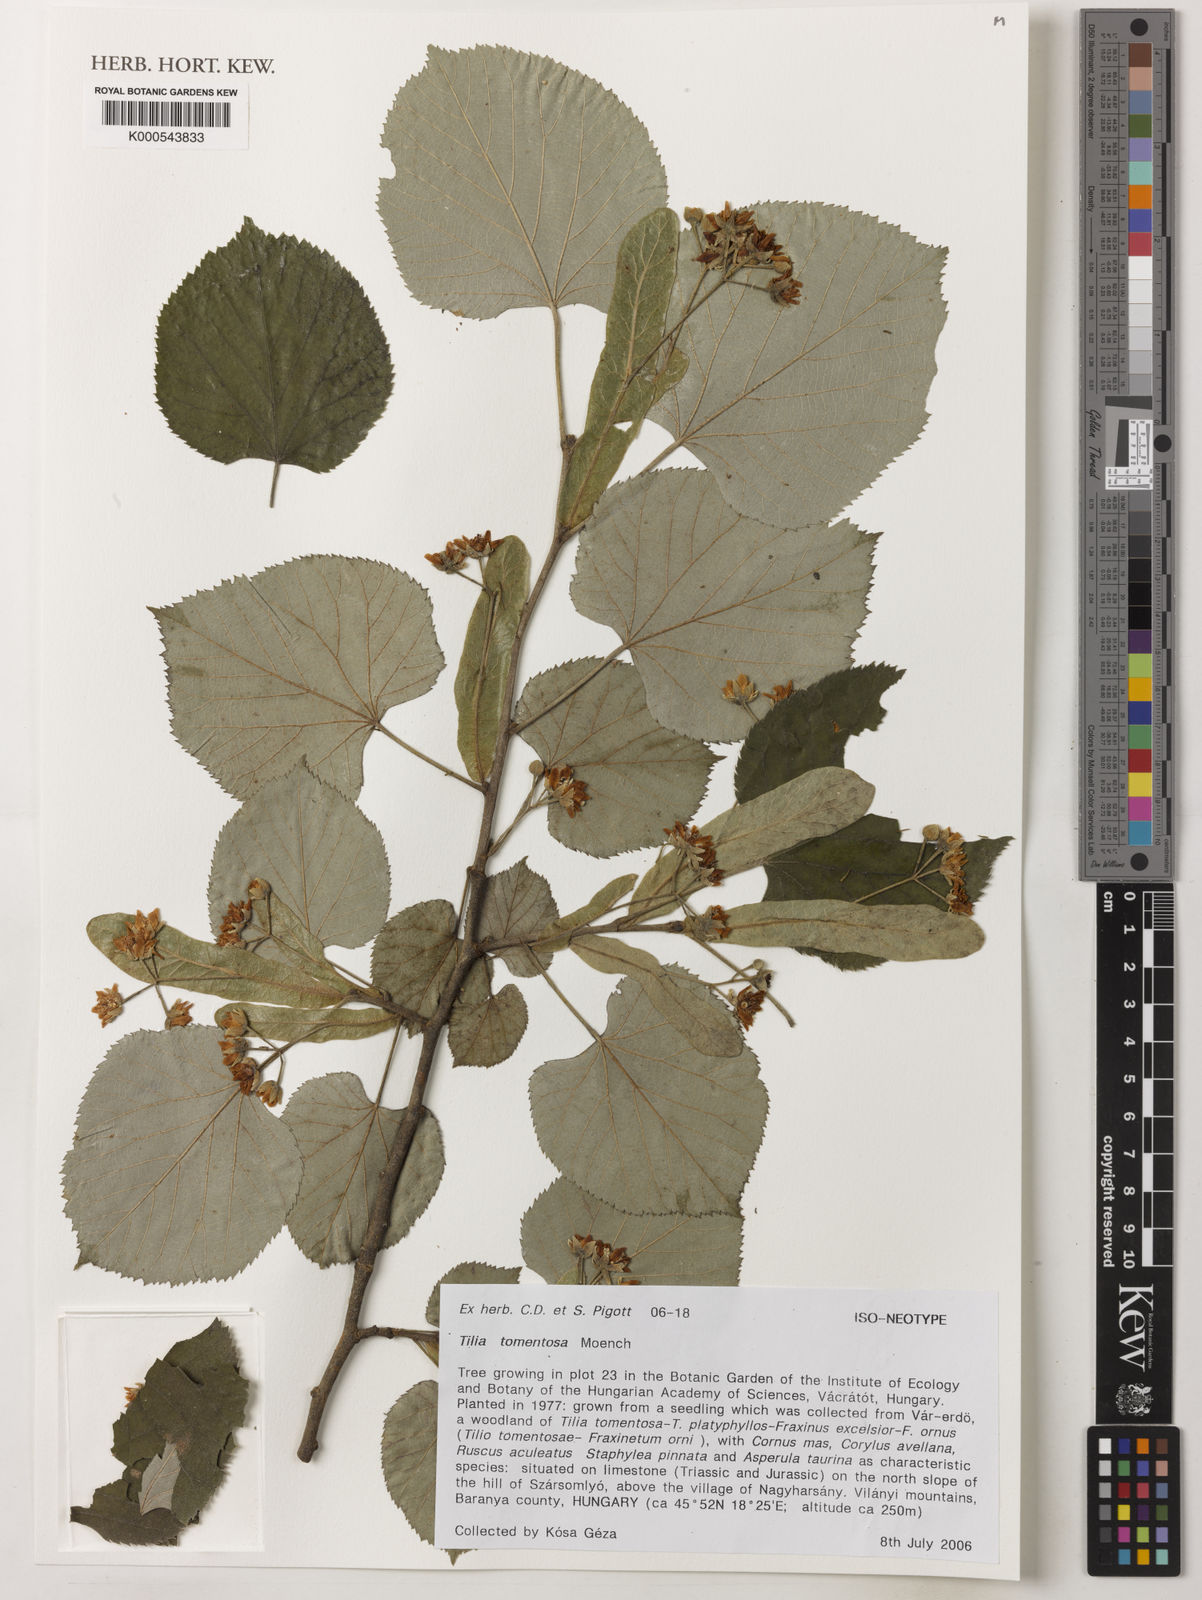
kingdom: Plantae
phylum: Tracheophyta
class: Magnoliopsida
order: Malvales
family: Malvaceae
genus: Tilia
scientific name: Tilia tomentosa
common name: Silver lime
